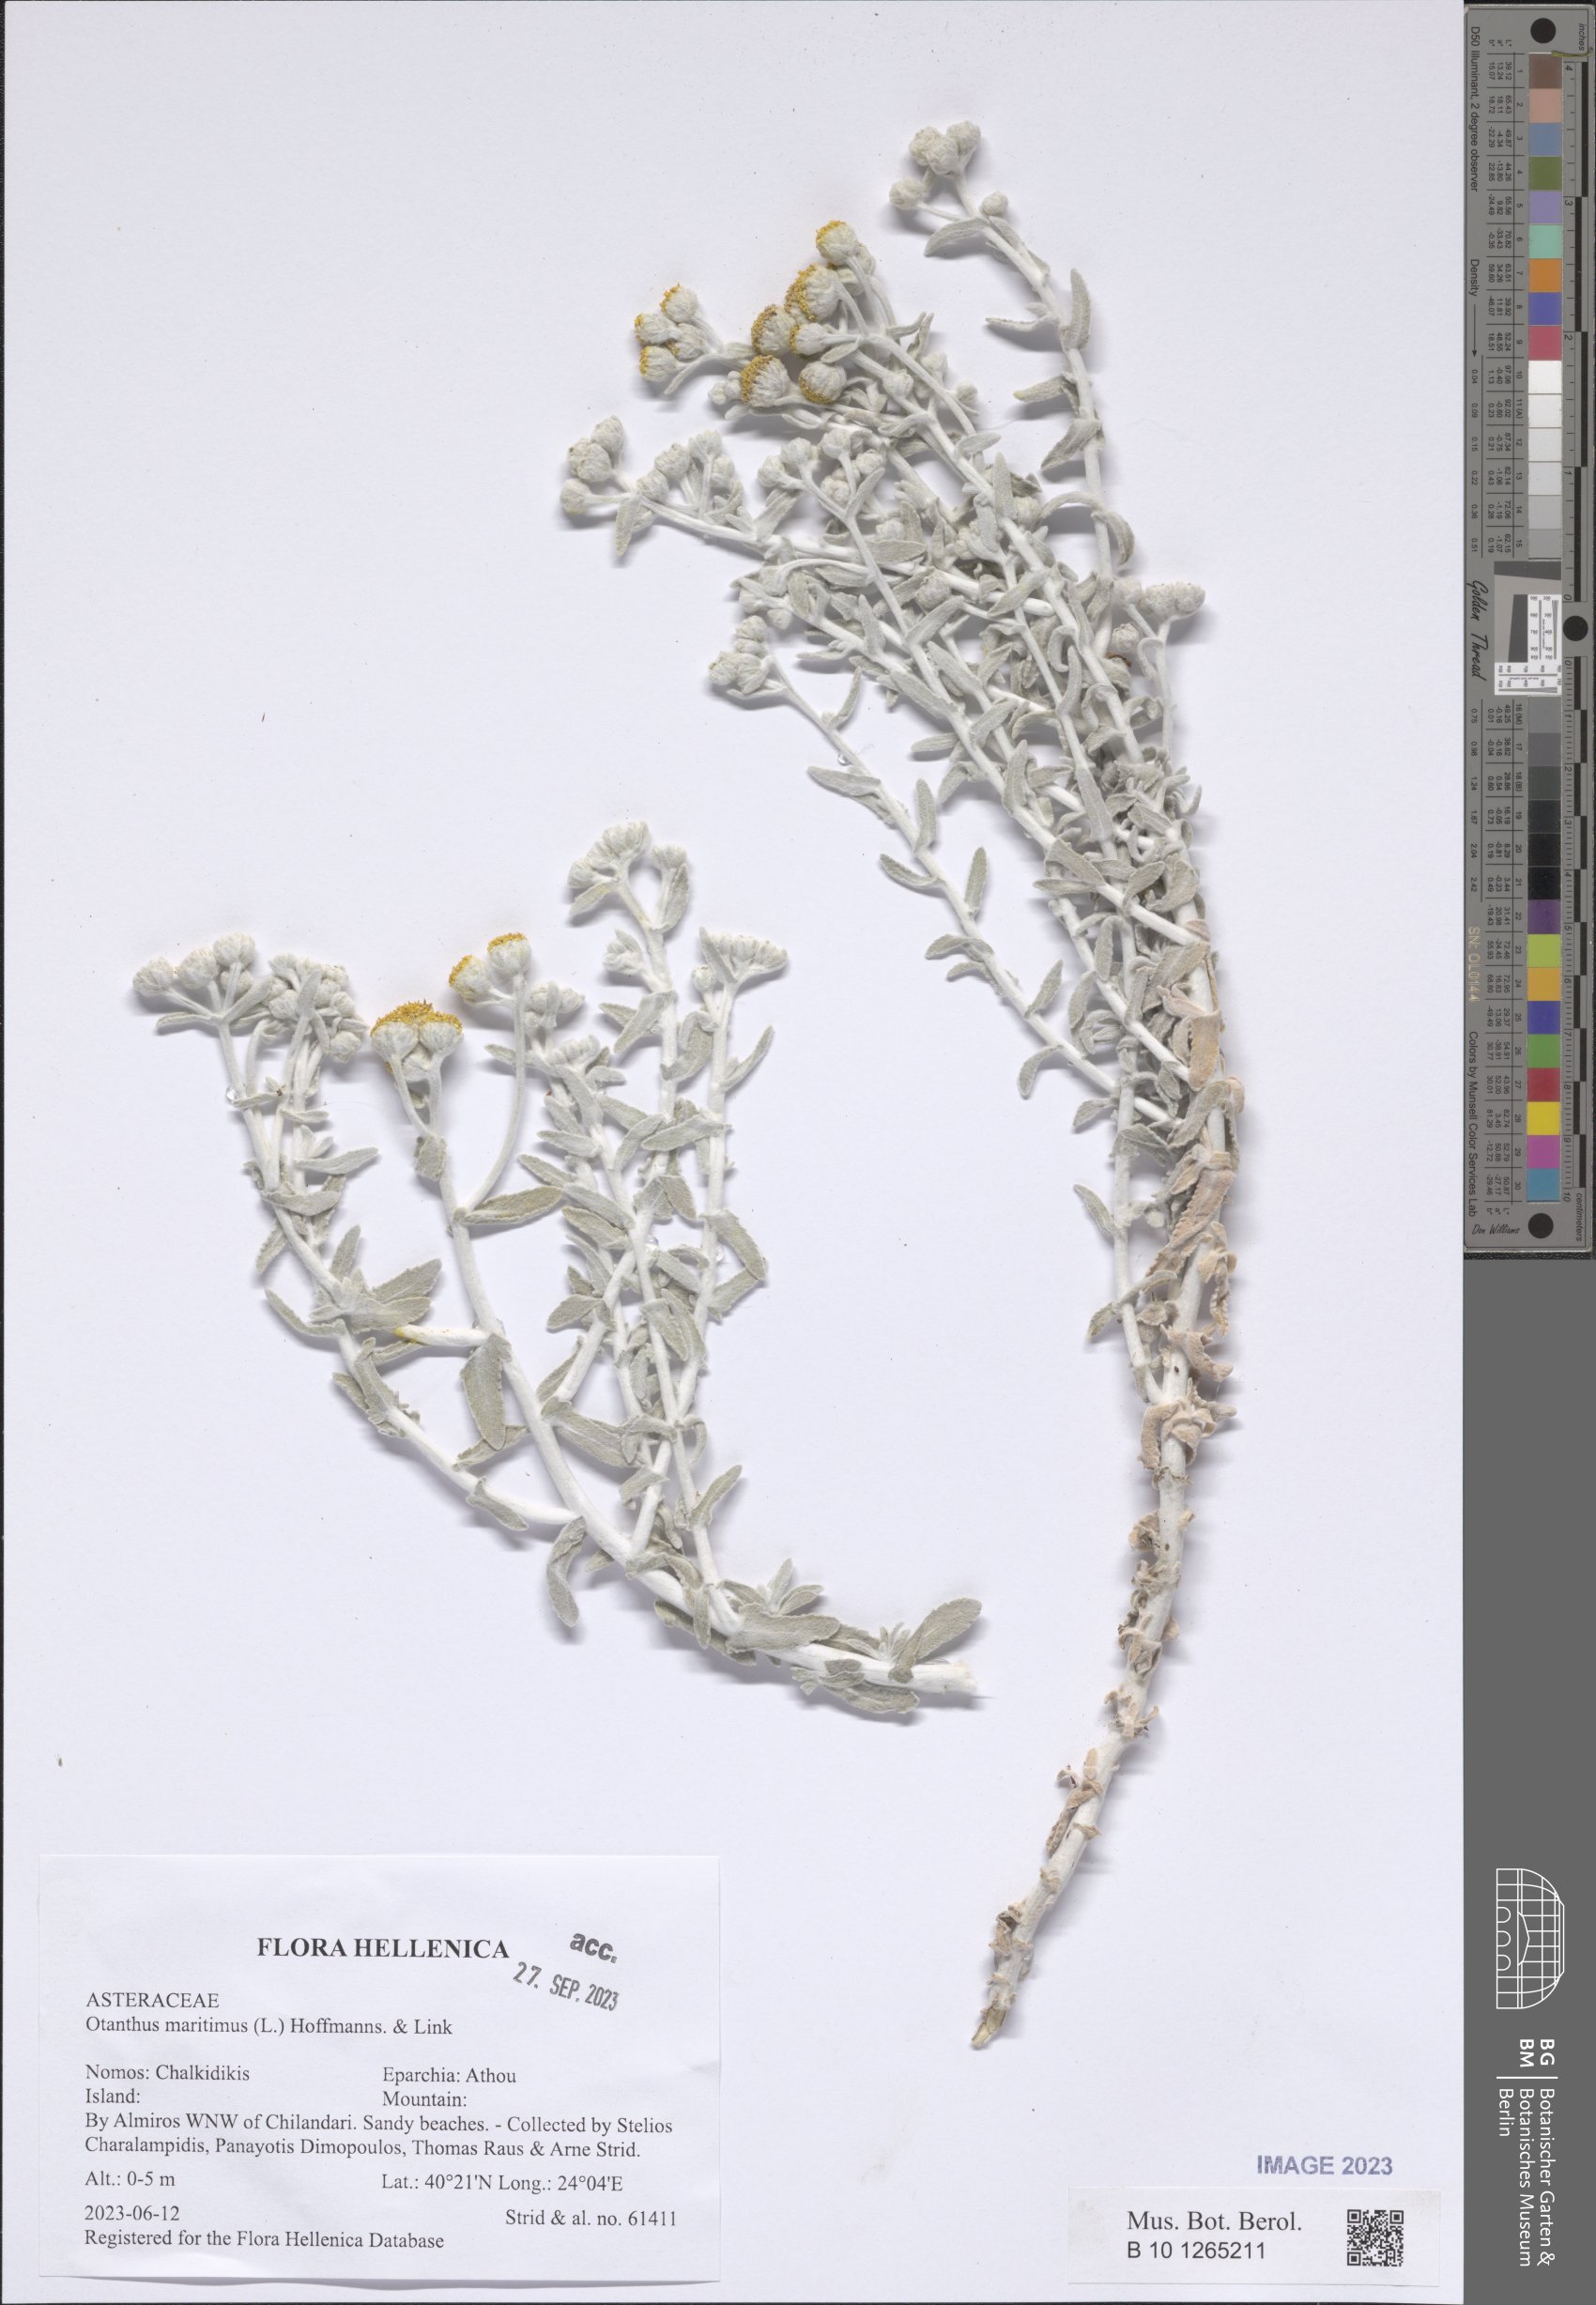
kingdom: Plantae
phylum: Tracheophyta
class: Magnoliopsida
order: Asterales
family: Asteraceae
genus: Achillea
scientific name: Achillea maritima
